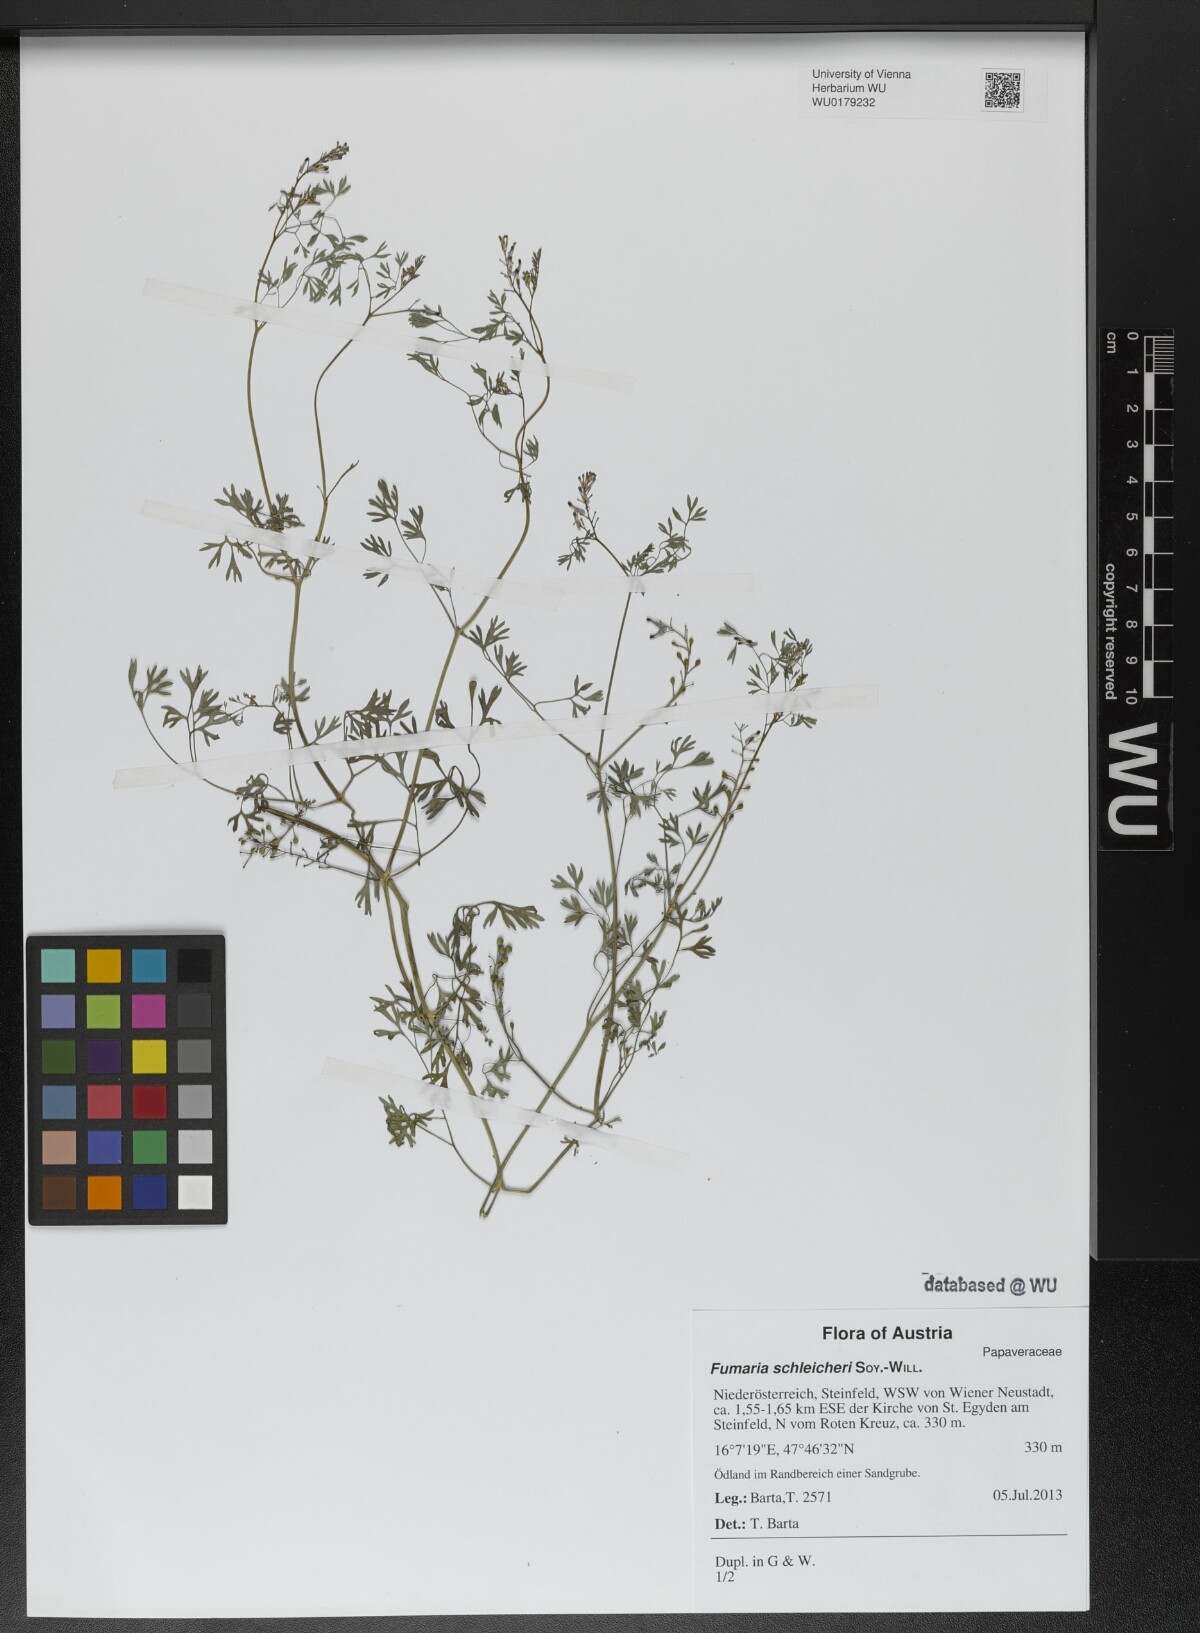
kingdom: Plantae
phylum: Tracheophyta
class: Magnoliopsida
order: Ranunculales
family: Papaveraceae
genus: Fumaria
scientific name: Fumaria schleicheri
